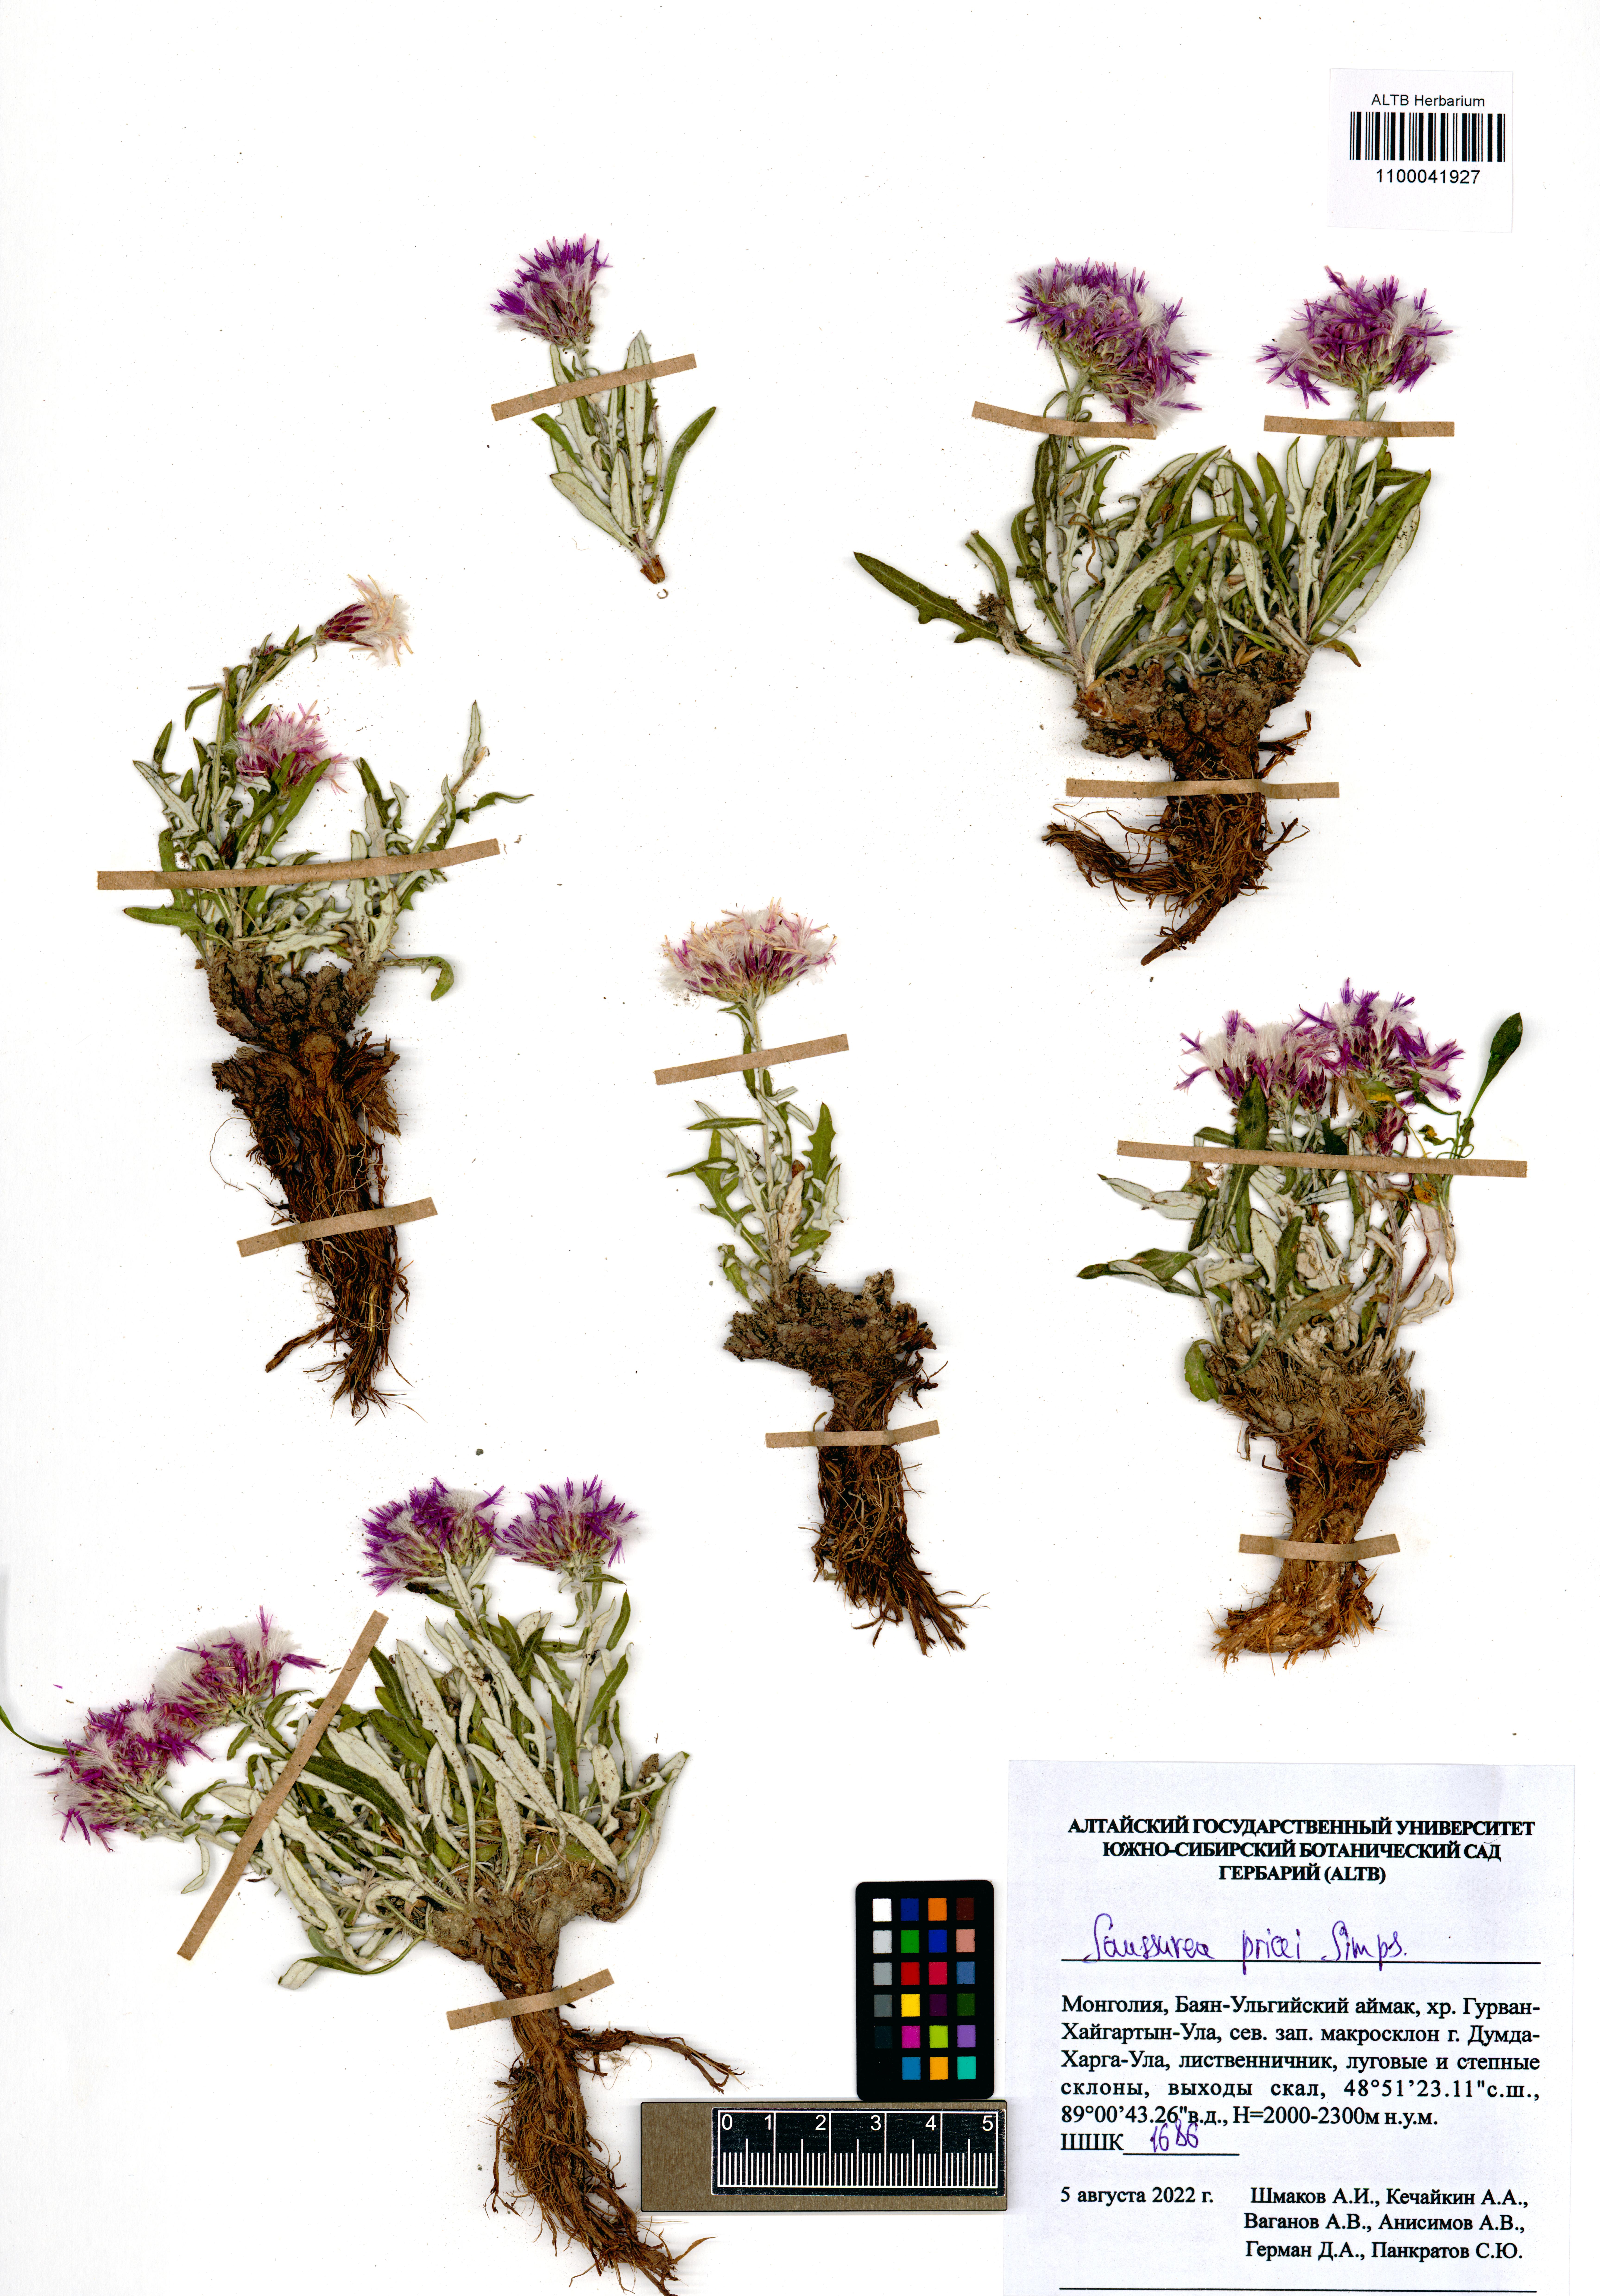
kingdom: Plantae
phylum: Tracheophyta
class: Magnoliopsida
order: Asterales
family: Asteraceae
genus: Saussurea
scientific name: Saussurea pricei
